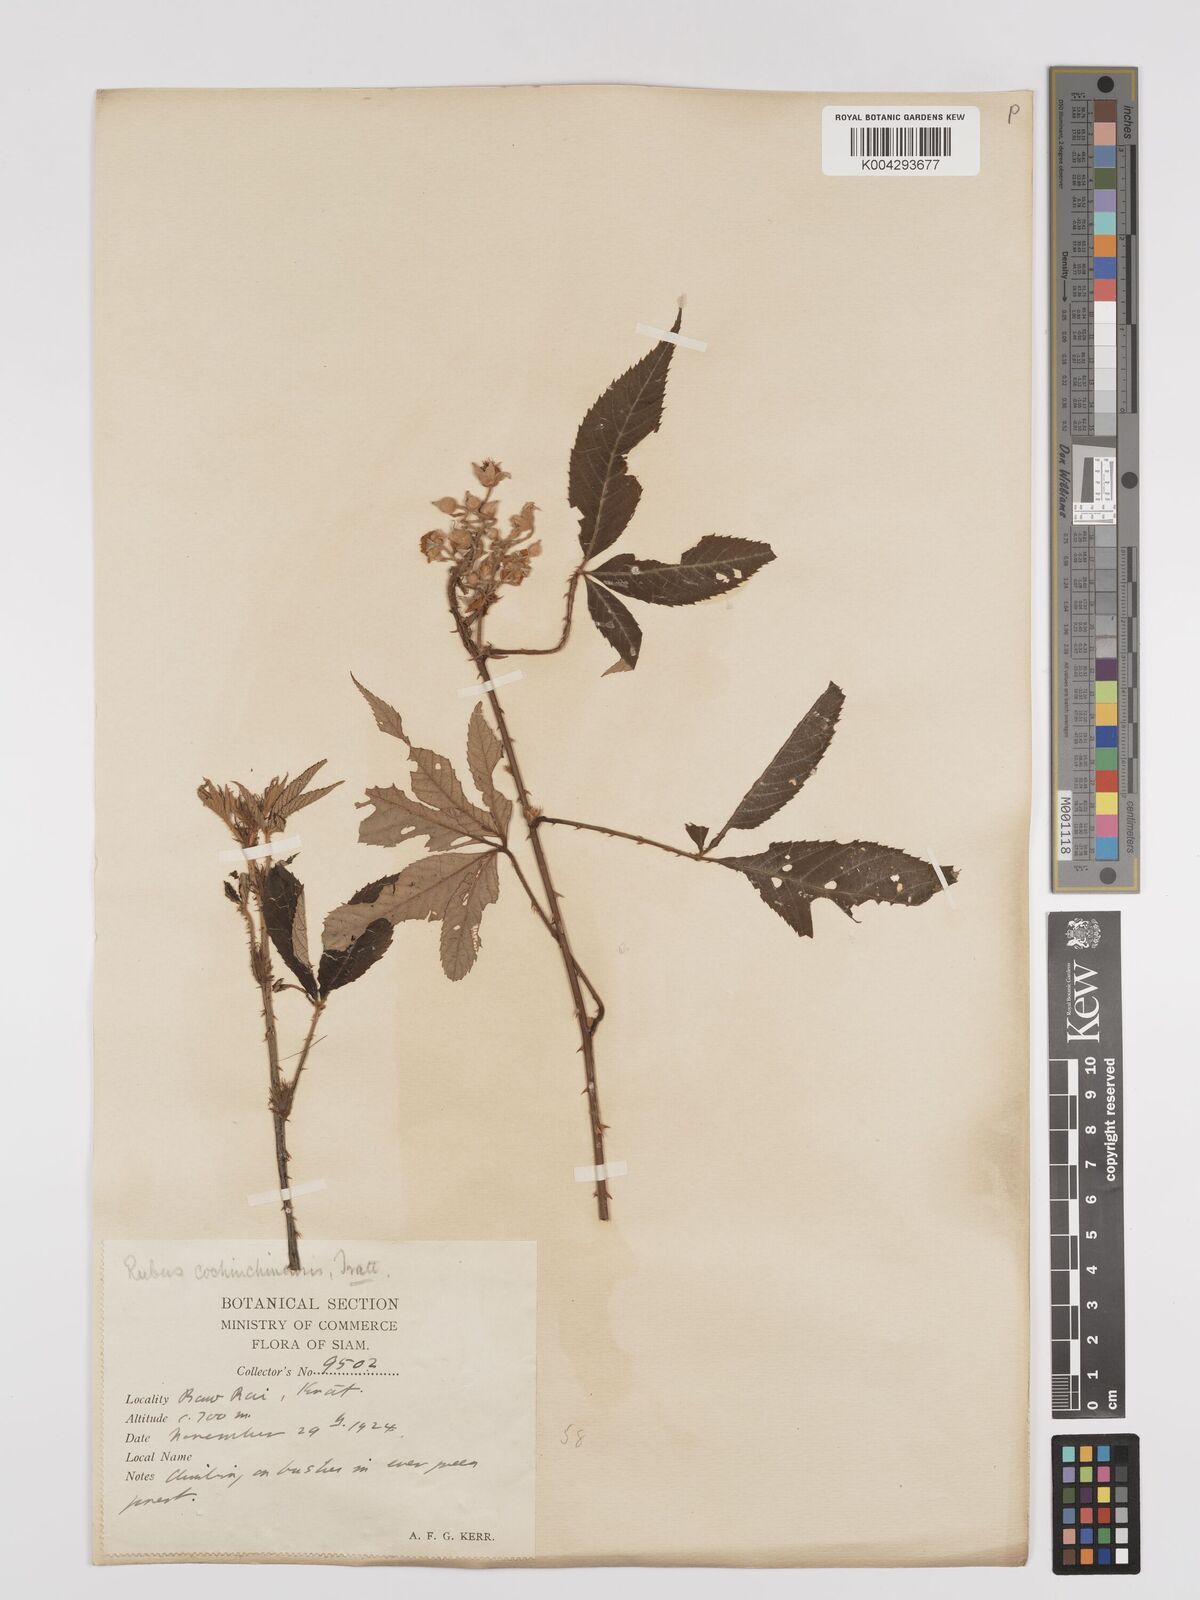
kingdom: Plantae
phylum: Tracheophyta
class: Magnoliopsida
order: Rosales
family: Rosaceae
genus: Rubus
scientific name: Rubus cochinchinensis
